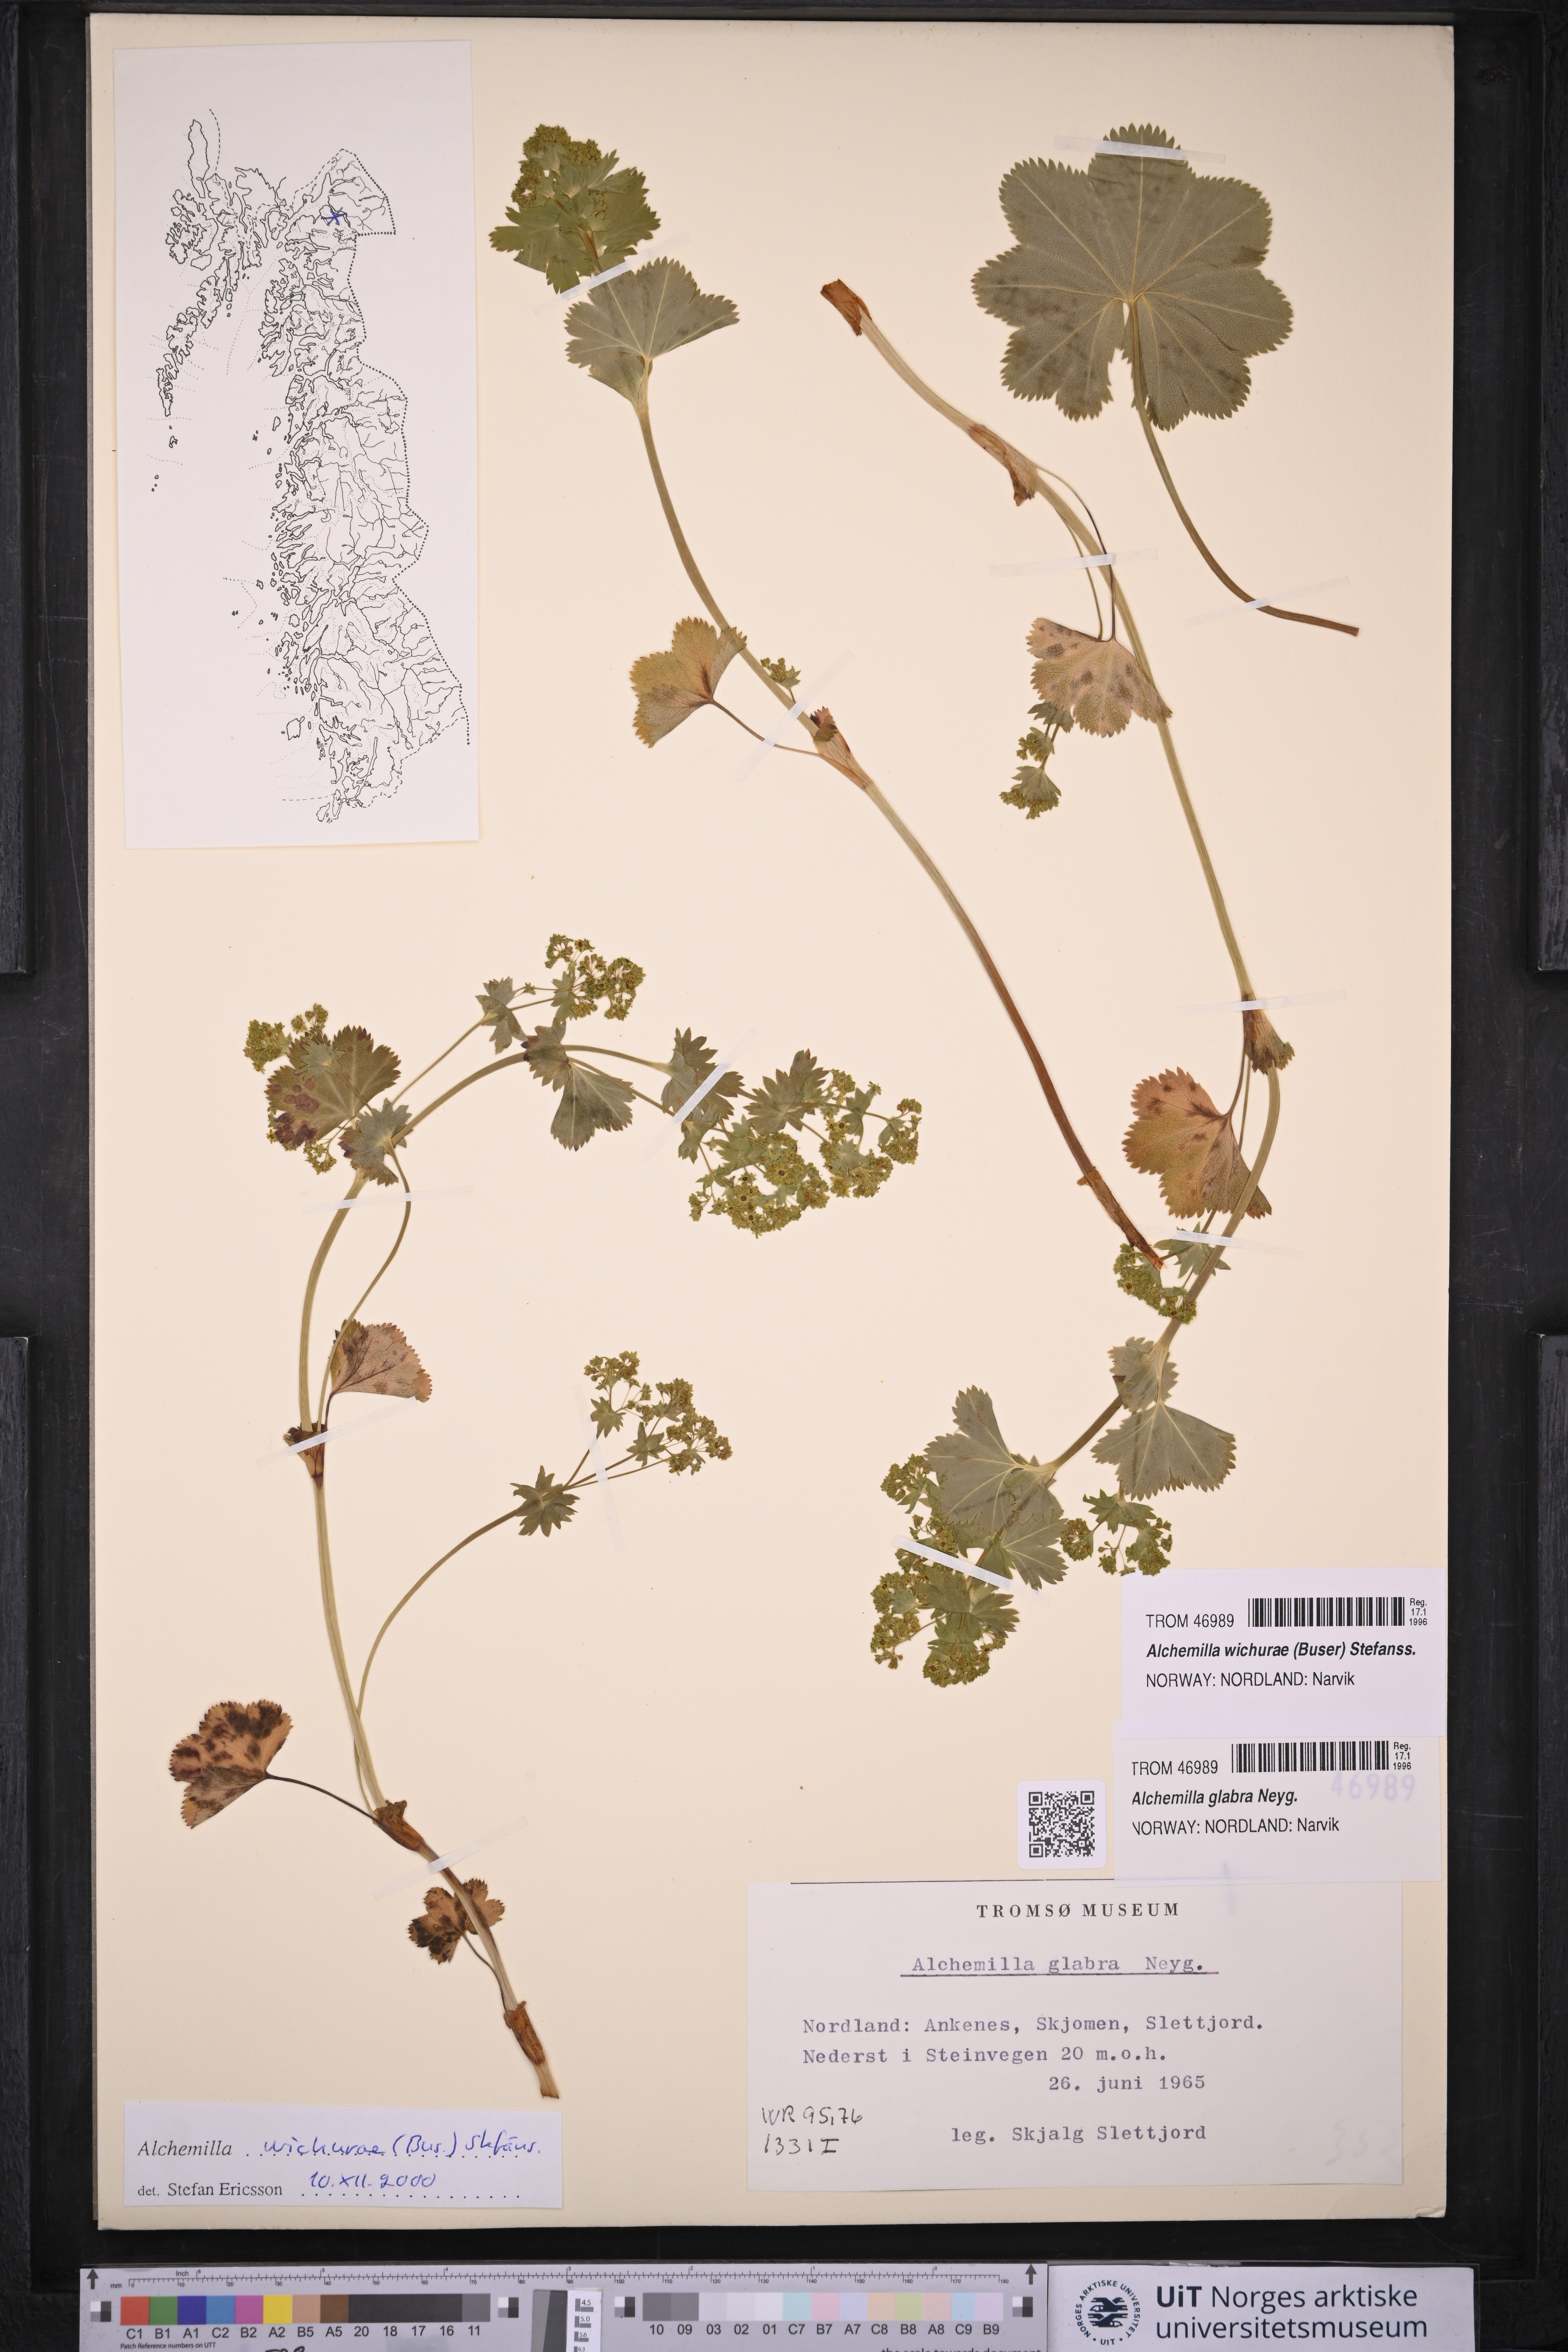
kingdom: Plantae
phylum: Tracheophyta
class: Magnoliopsida
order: Rosales
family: Rosaceae
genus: Alchemilla
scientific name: Alchemilla wichurae
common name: Rock lady's mantle
